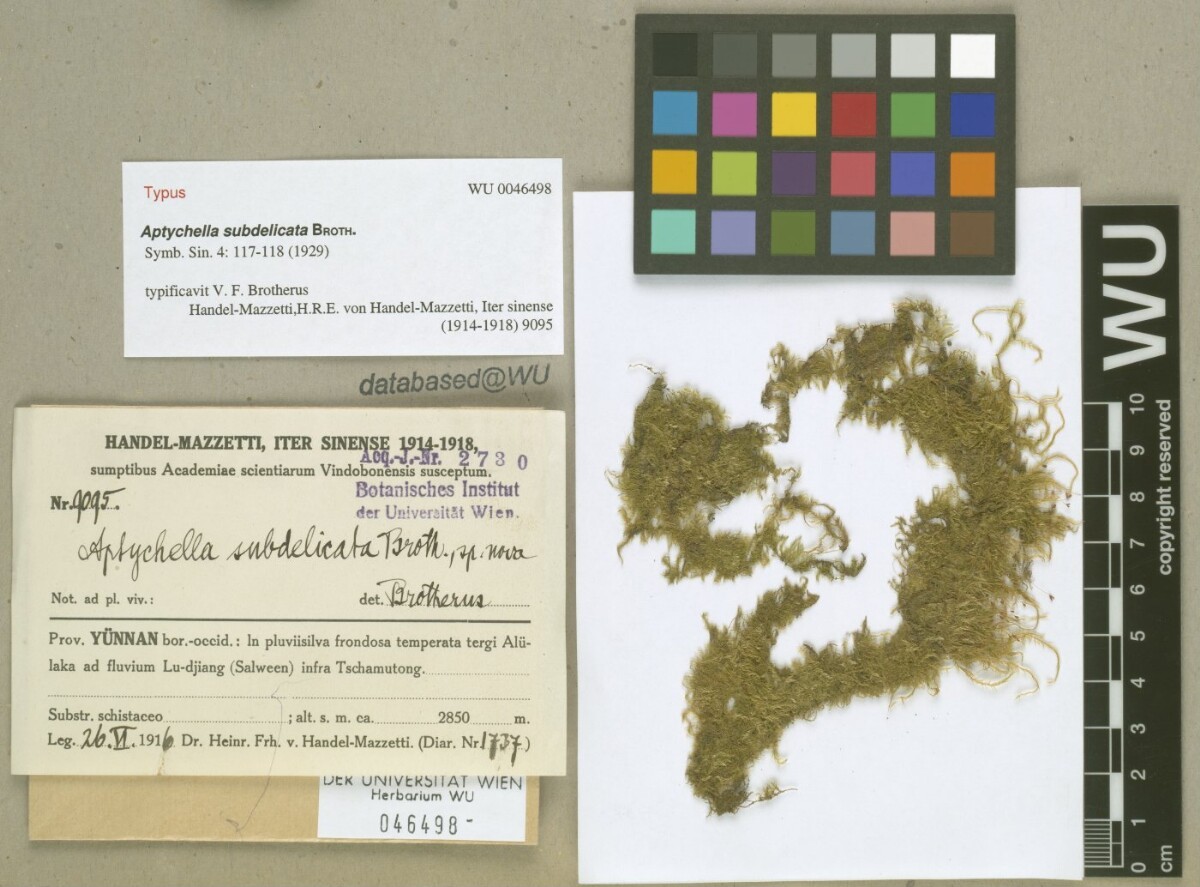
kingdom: Plantae
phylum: Bryophyta
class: Bryopsida
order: Hypnales
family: Pylaisiadelphaceae
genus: Aptychella
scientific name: Aptychella planula
